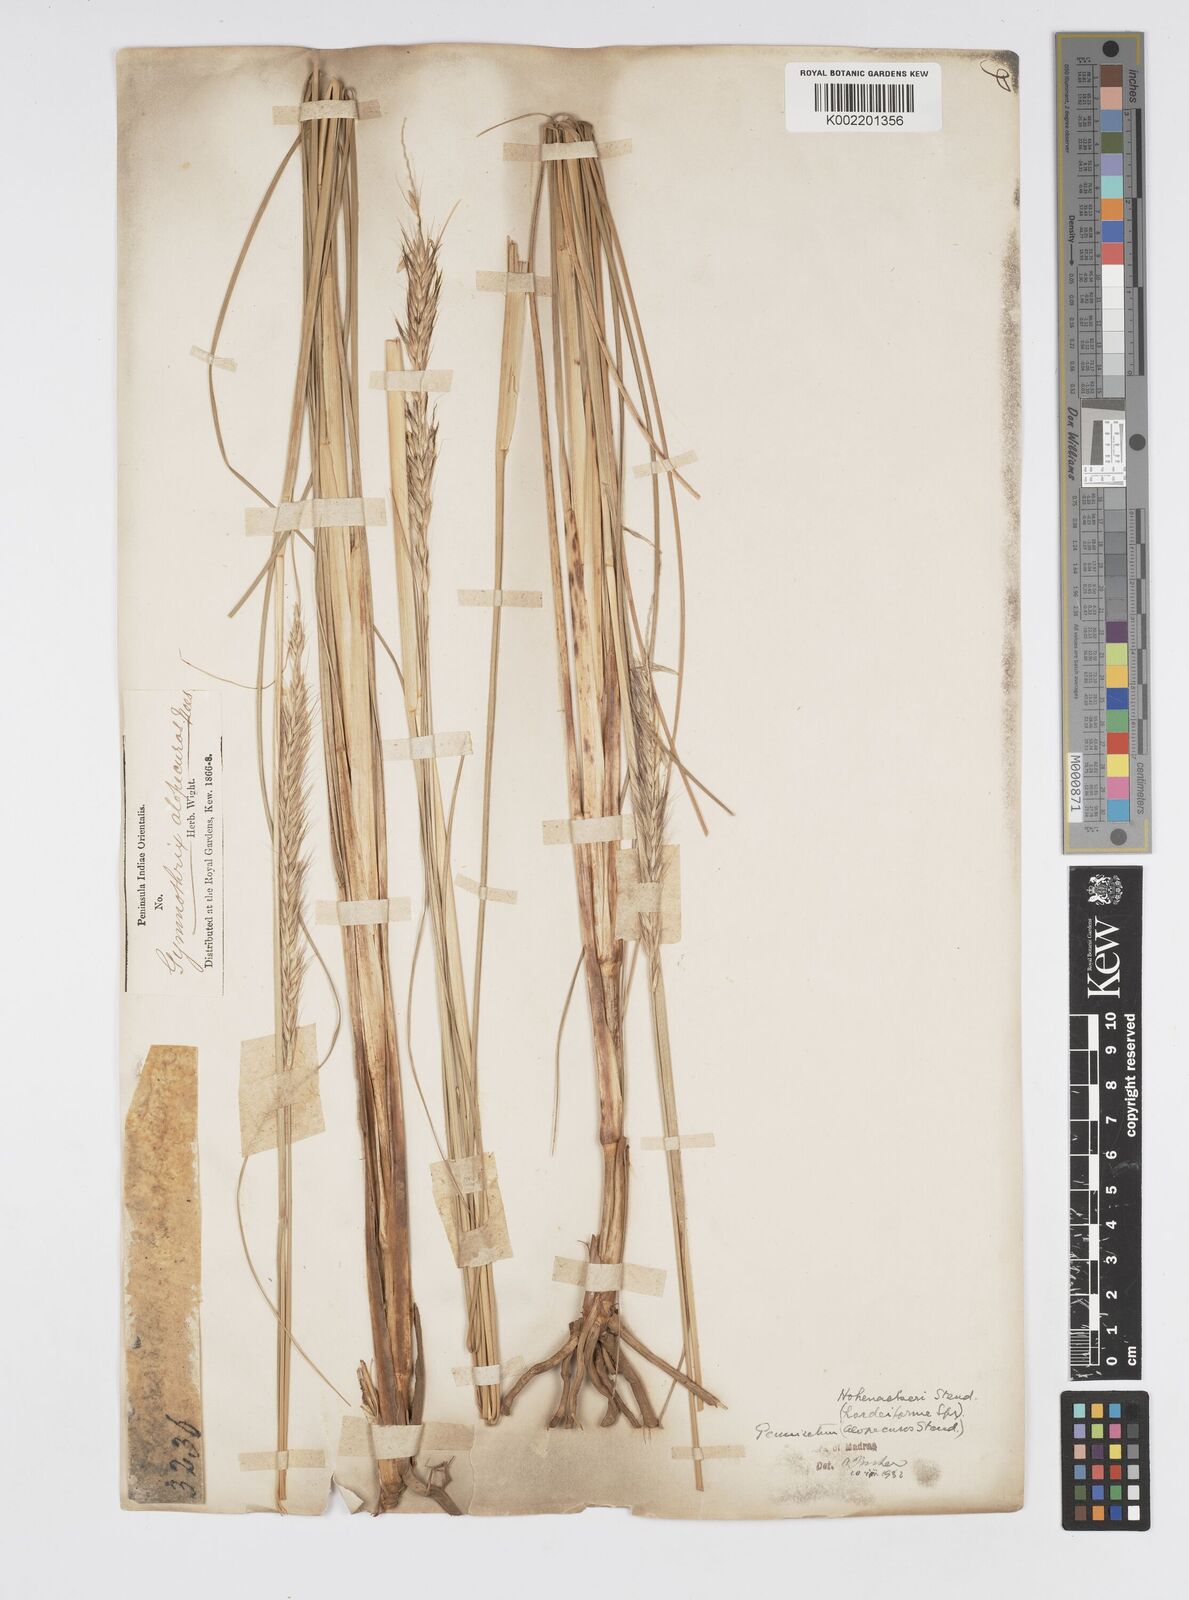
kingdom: Plantae
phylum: Tracheophyta
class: Liliopsida
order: Poales
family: Poaceae
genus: Cenchrus
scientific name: Cenchrus hohenackeri
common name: Moya grass
